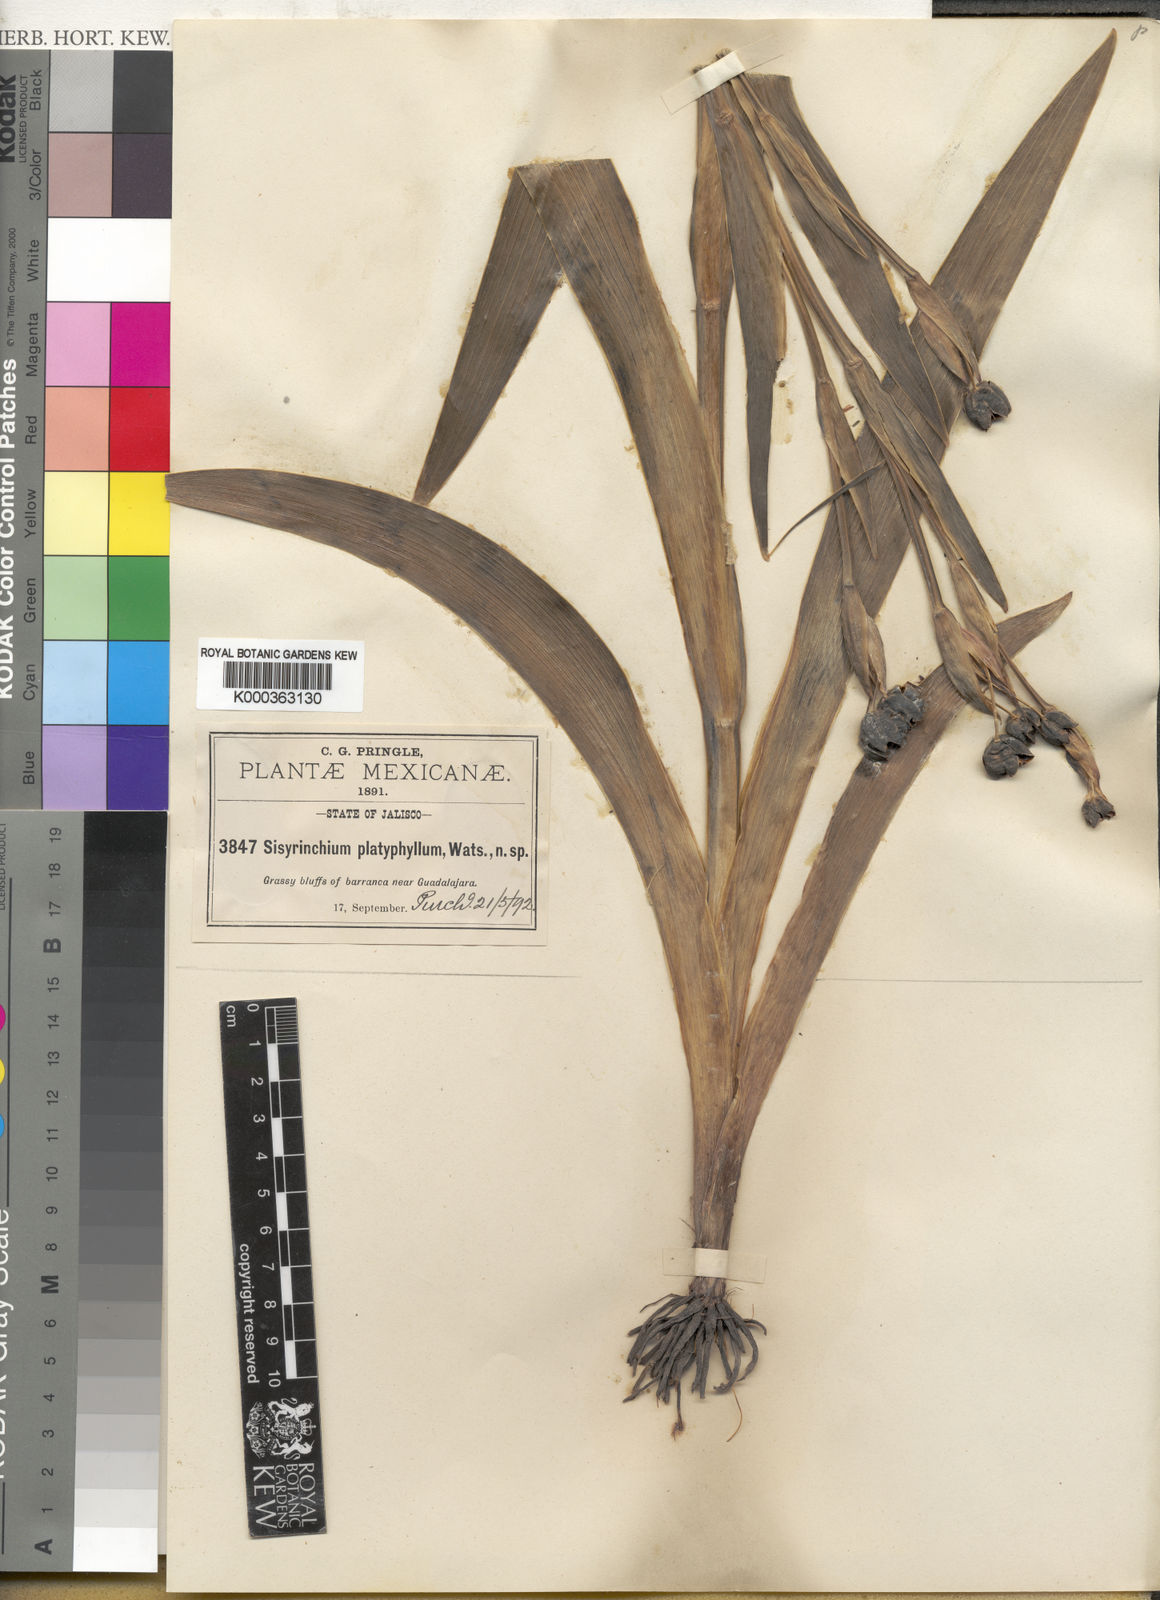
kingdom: Plantae
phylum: Tracheophyta
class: Liliopsida
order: Asparagales
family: Iridaceae
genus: Sisyrinchium
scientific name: Sisyrinchium platyphyllum
